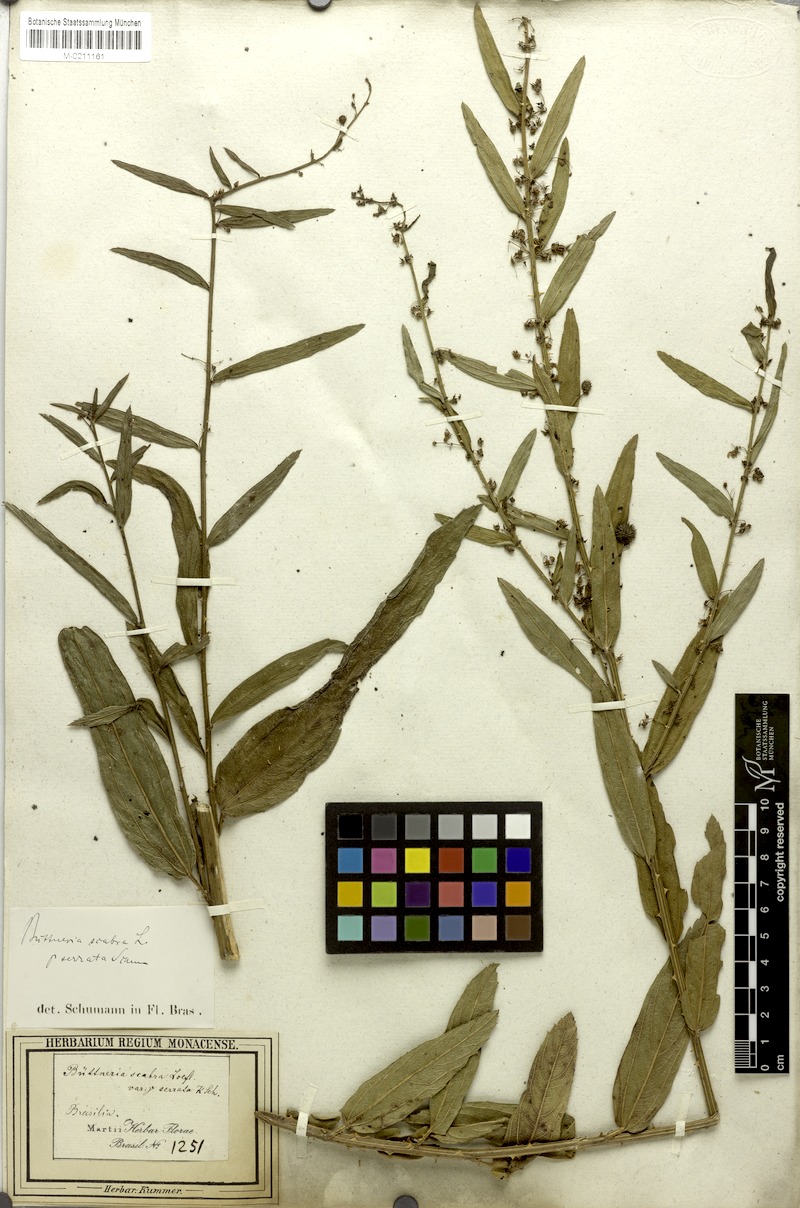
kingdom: Plantae
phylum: Tracheophyta
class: Magnoliopsida
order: Malvales
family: Malvaceae
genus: Byttneria
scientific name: Byttneria scabra
